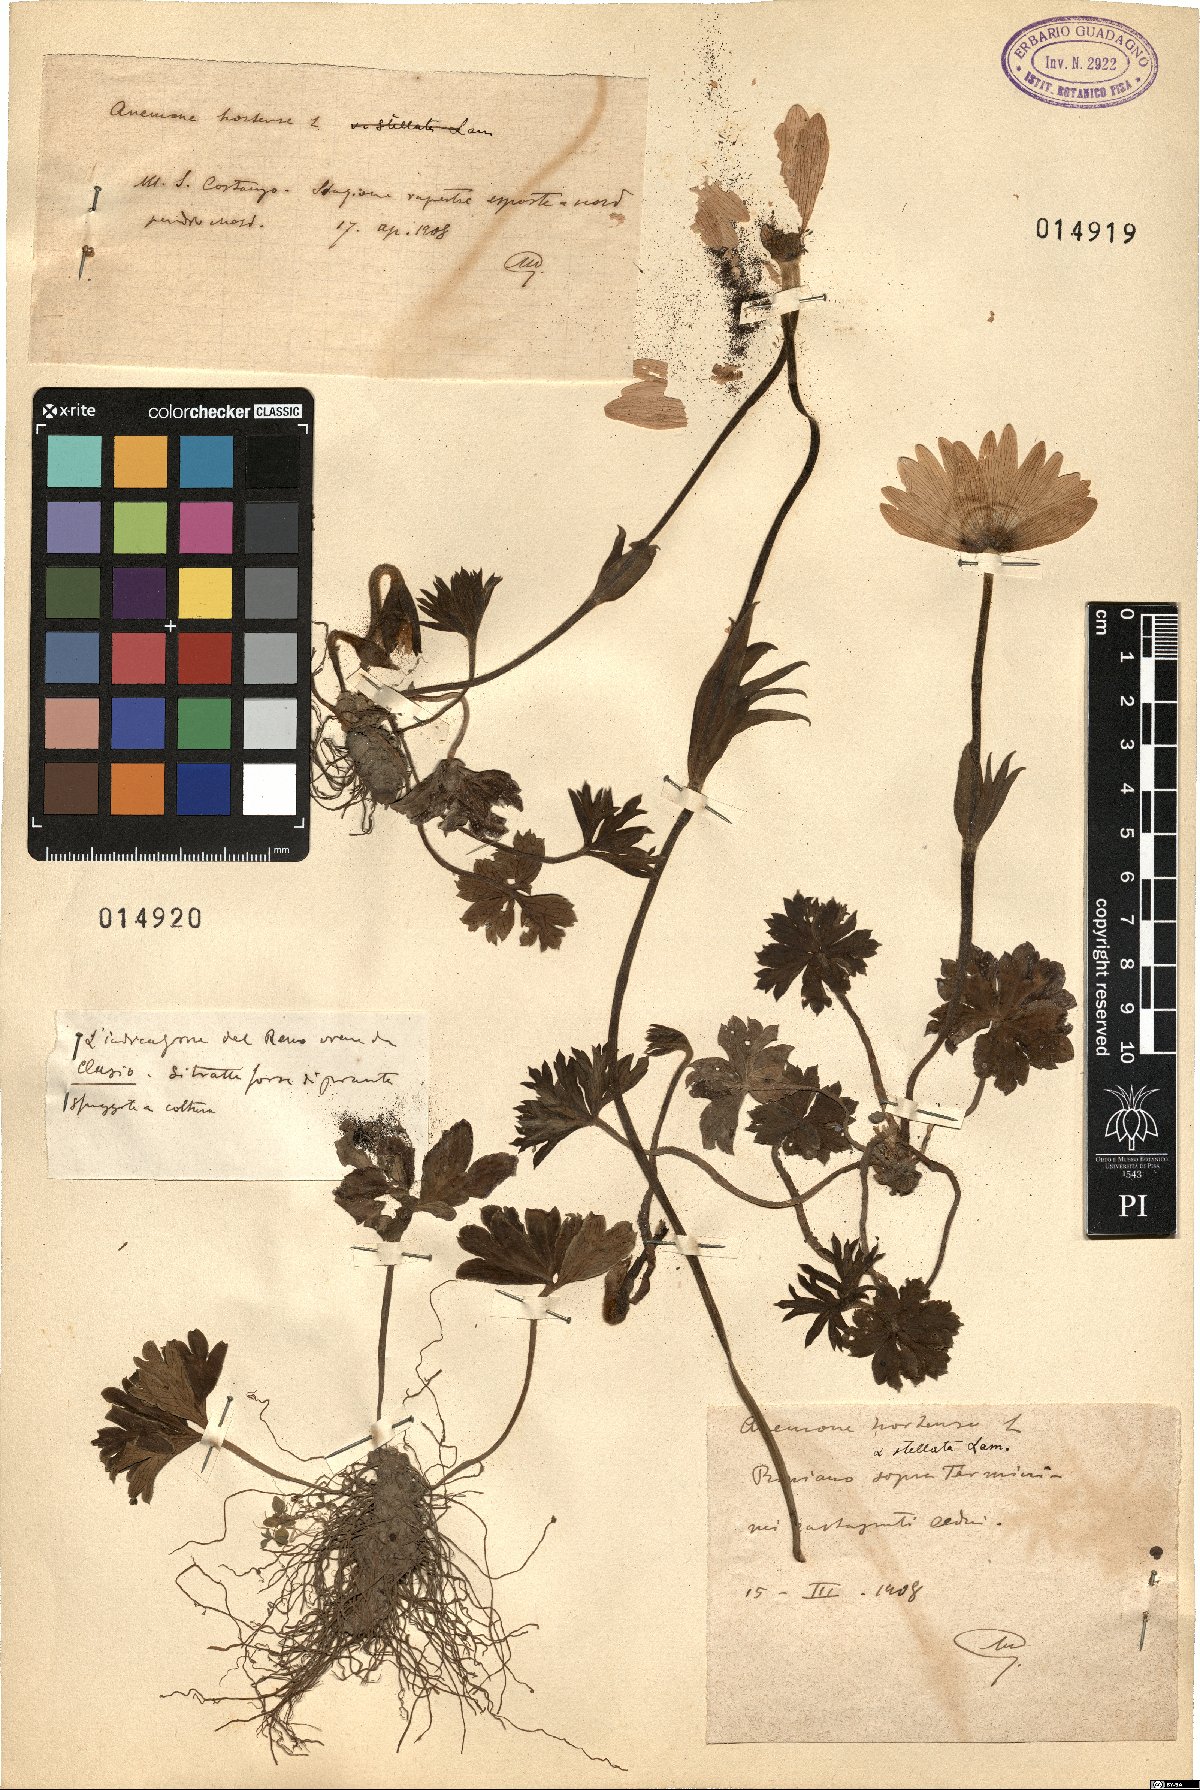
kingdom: Plantae
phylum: Tracheophyta
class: Magnoliopsida
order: Ranunculales
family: Ranunculaceae
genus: Anemone
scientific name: Anemone hortensis
